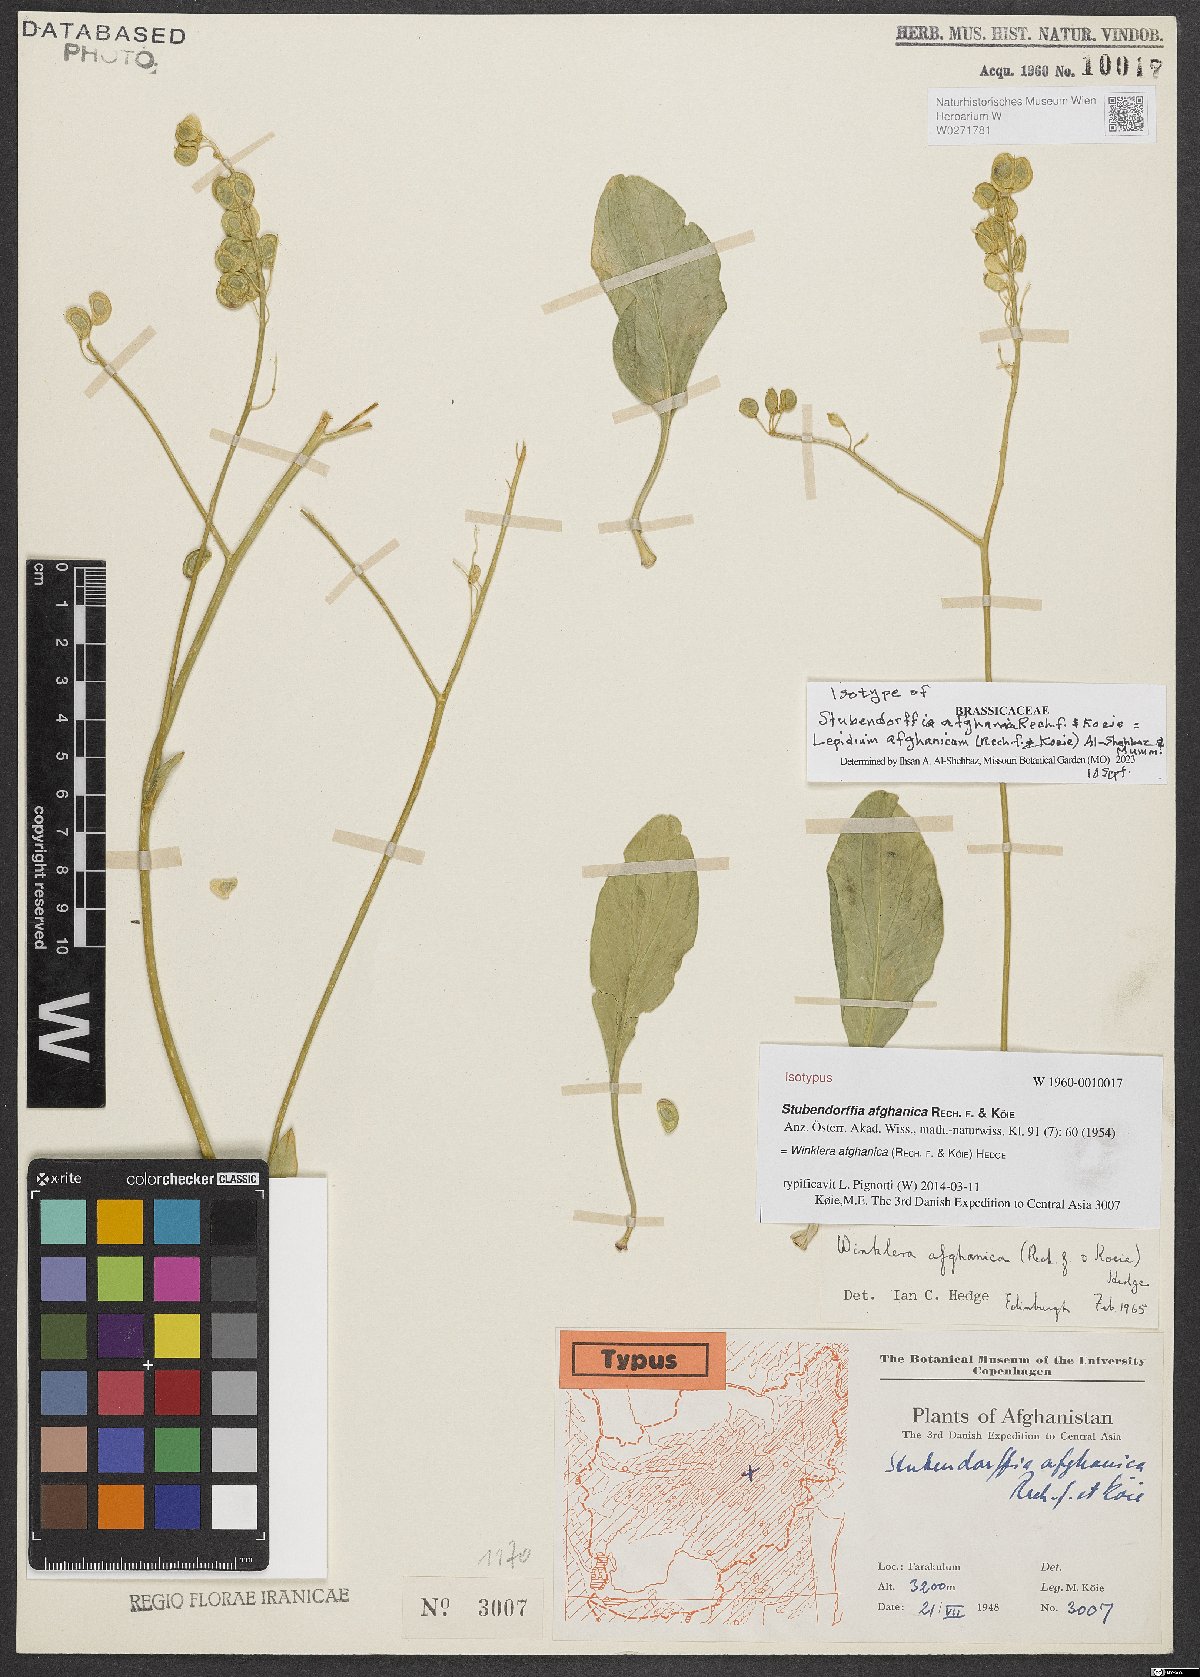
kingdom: Plantae
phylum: Tracheophyta
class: Magnoliopsida
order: Brassicales
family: Brassicaceae
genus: Lepidium
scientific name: Lepidium afghanicum
